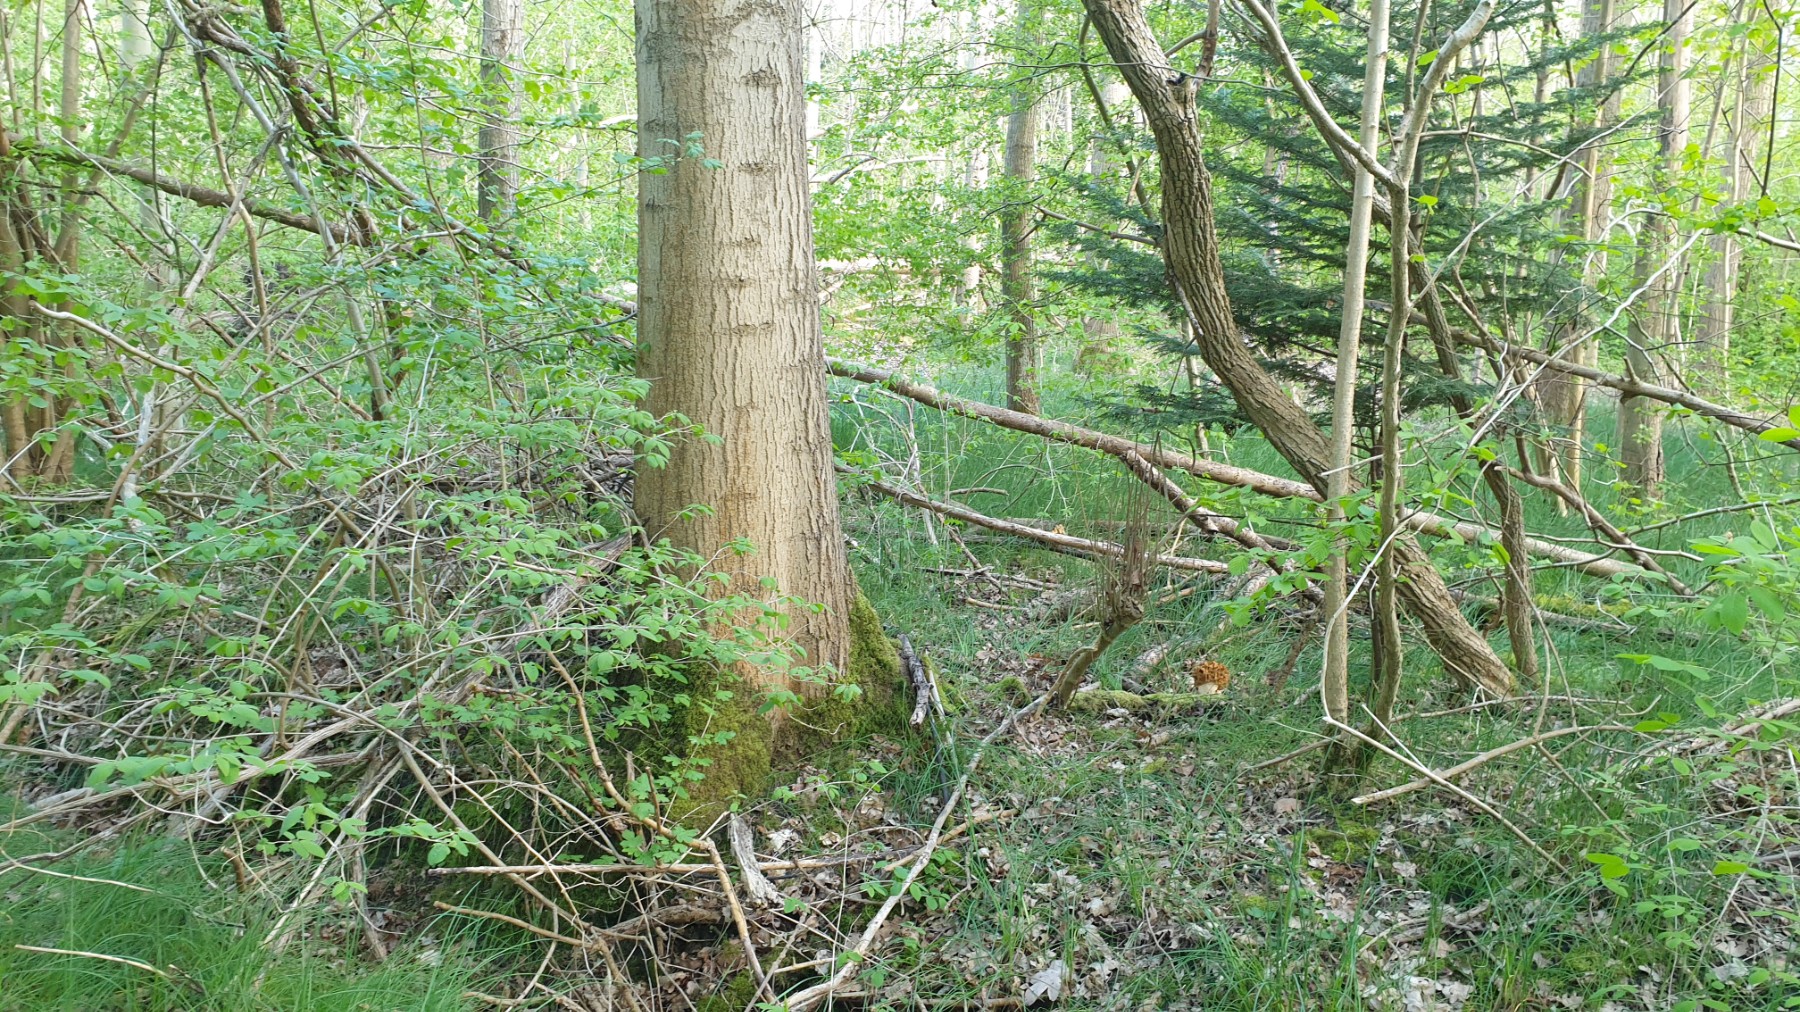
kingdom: Fungi
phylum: Ascomycota
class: Pezizomycetes
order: Pezizales
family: Morchellaceae
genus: Morchella
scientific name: Morchella esculenta
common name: spiselig morkel
